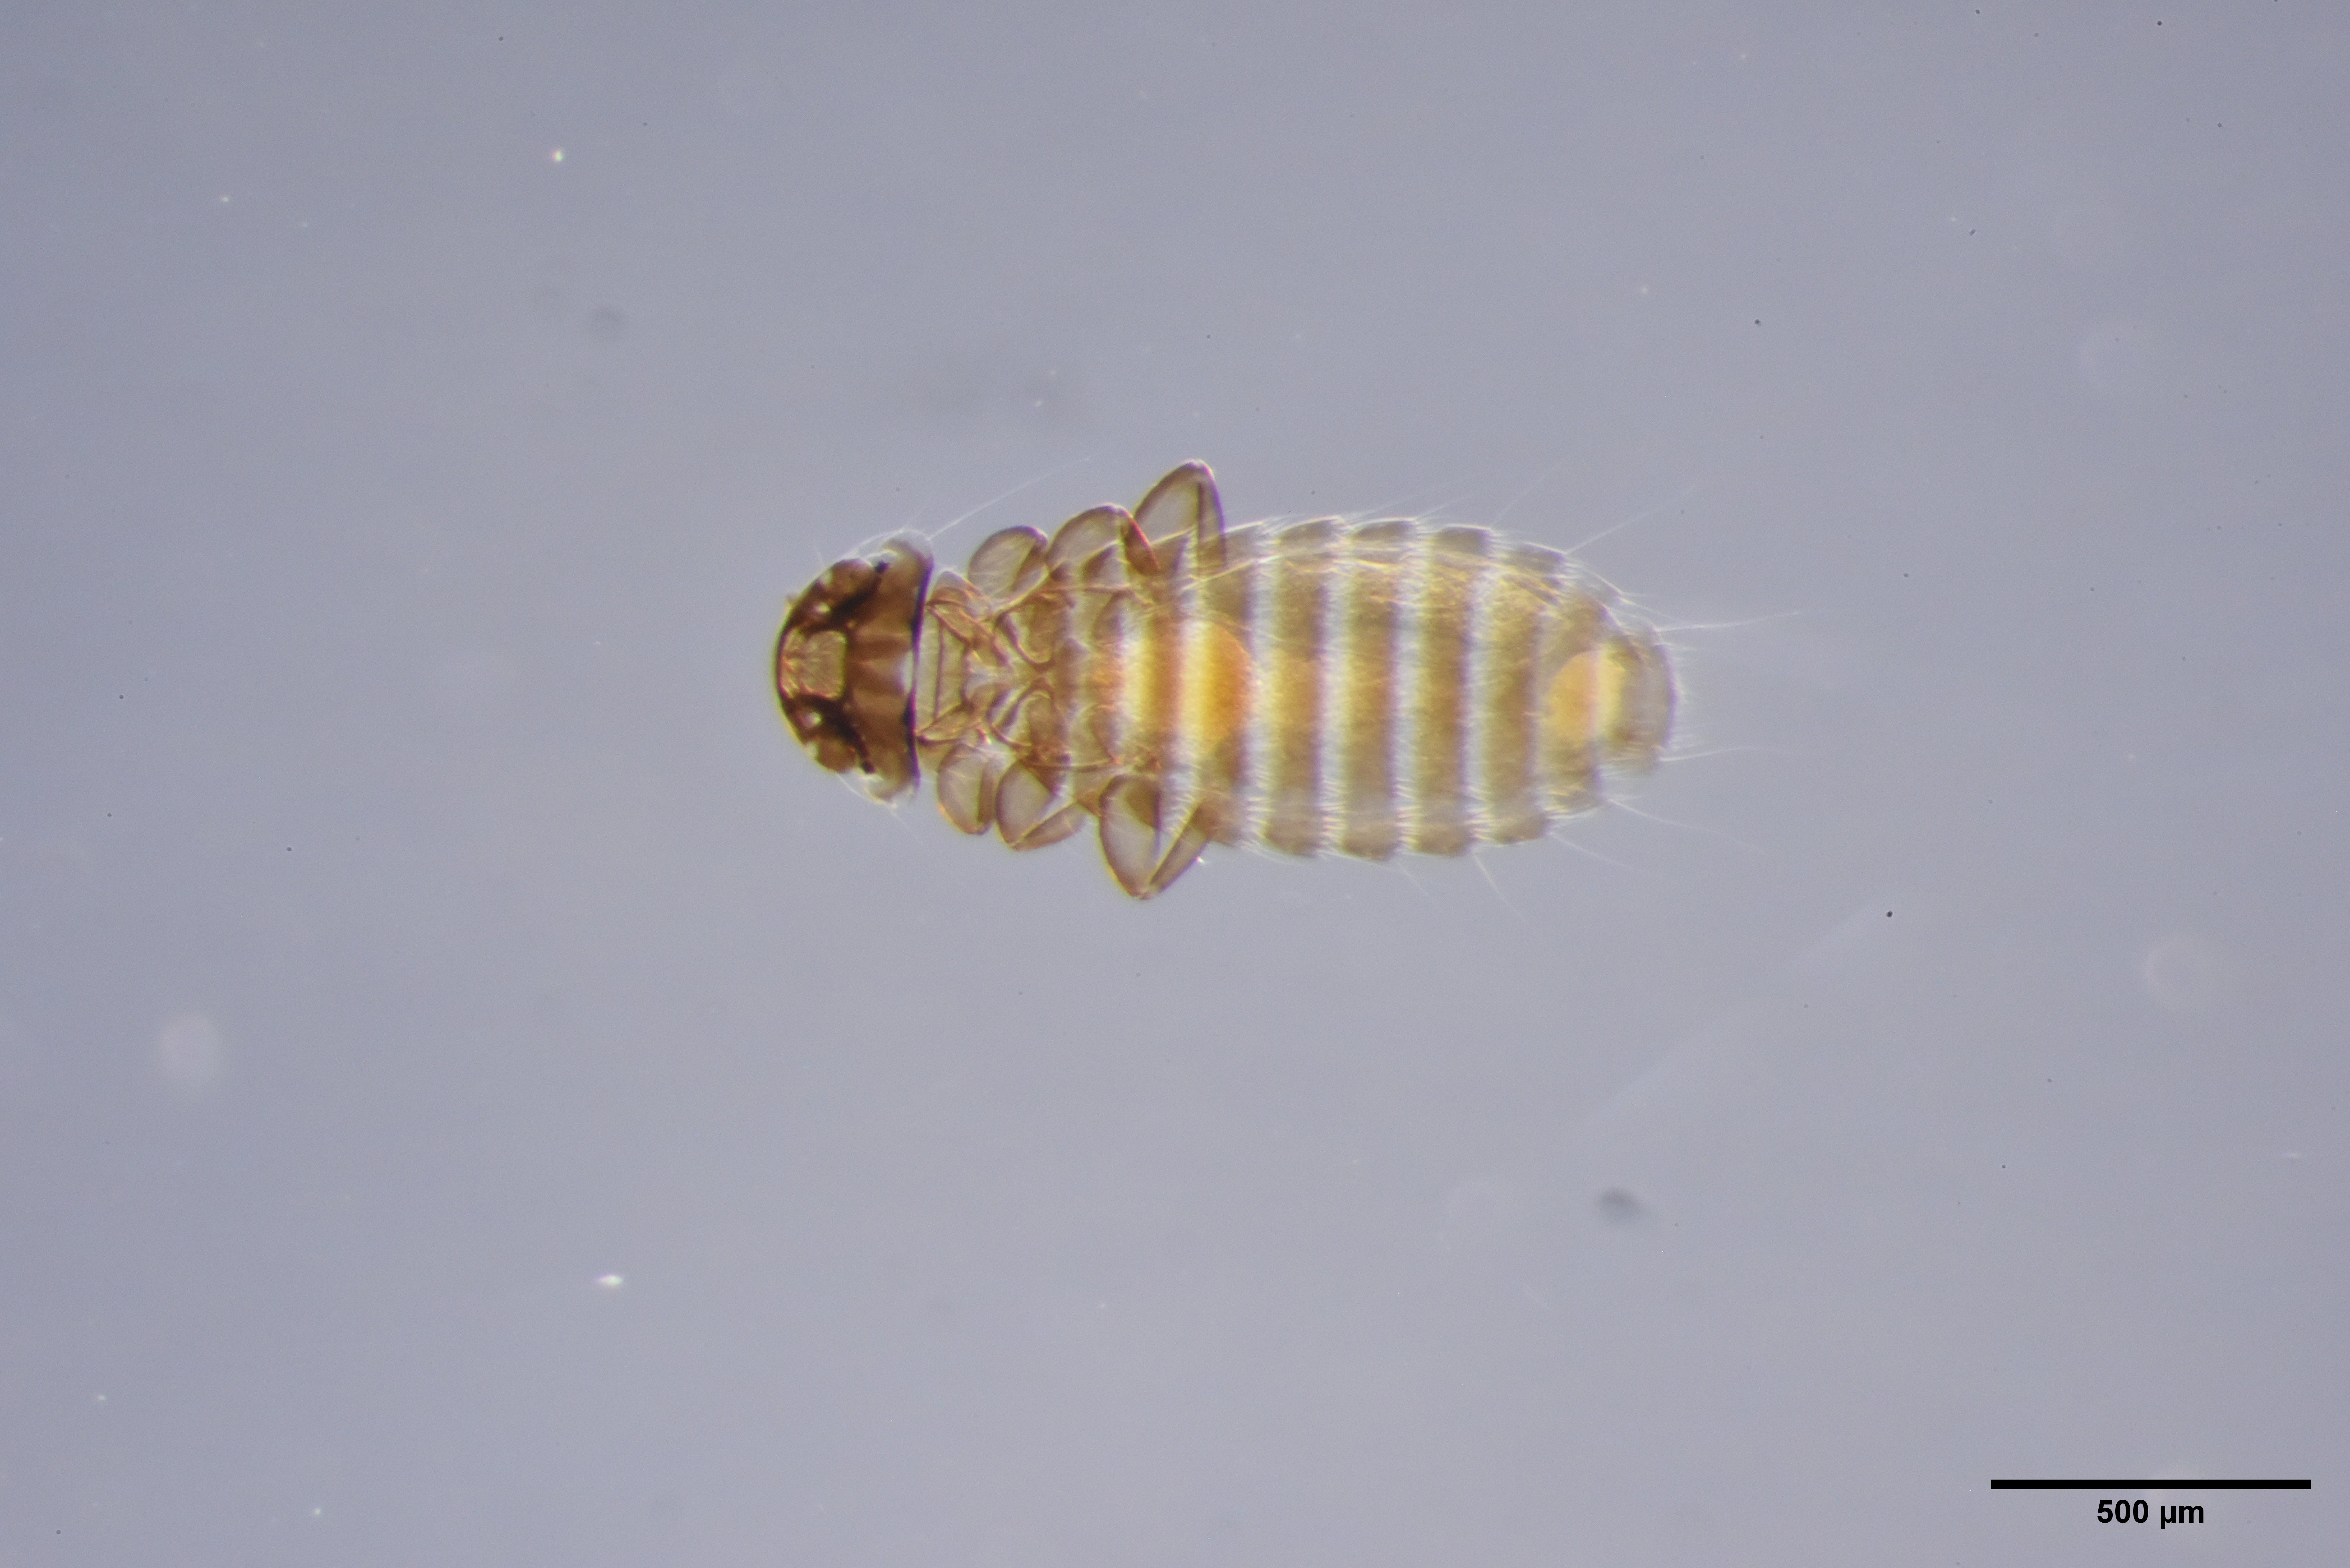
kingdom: Animalia
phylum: Arthropoda
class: Insecta
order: Psocodea
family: Menoponidae
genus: Menacanthus
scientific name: Menacanthus agilis
